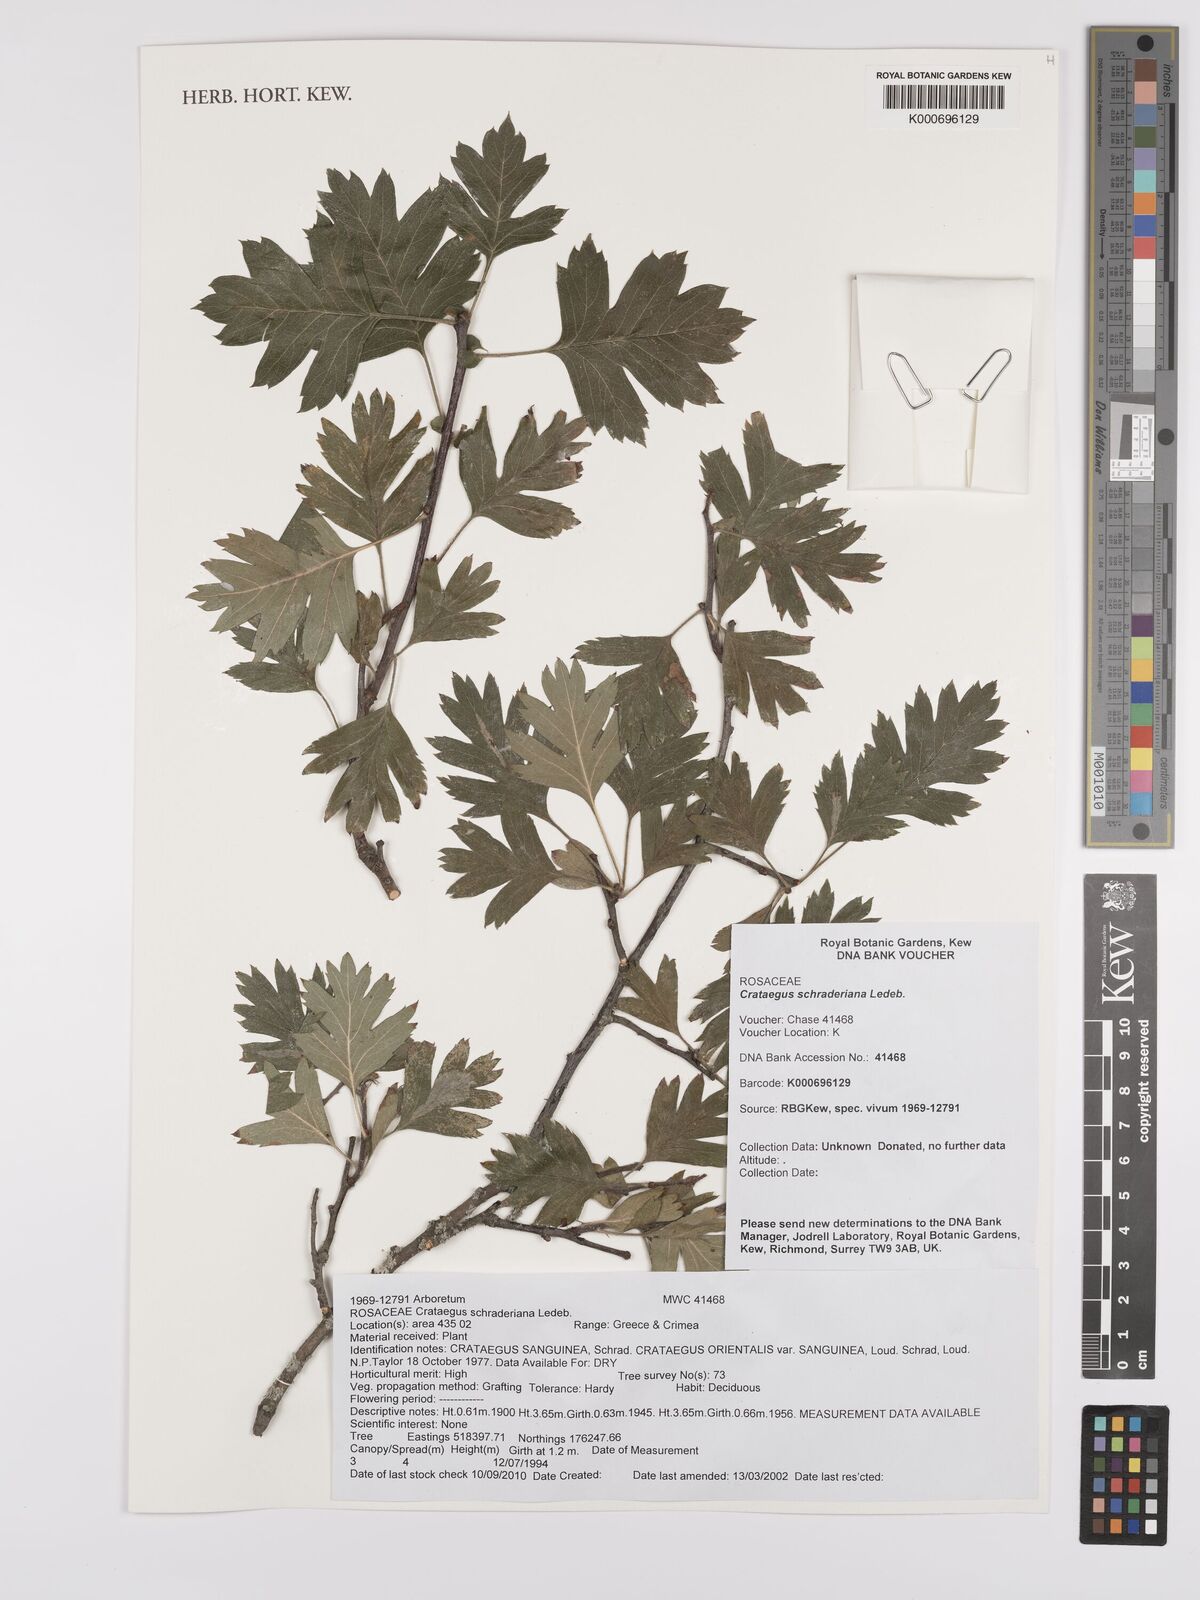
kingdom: Plantae
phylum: Tracheophyta
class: Magnoliopsida
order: Rosales
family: Rosaceae
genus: Crataegus
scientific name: Crataegus orientalis
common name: Oriental hawthorn
